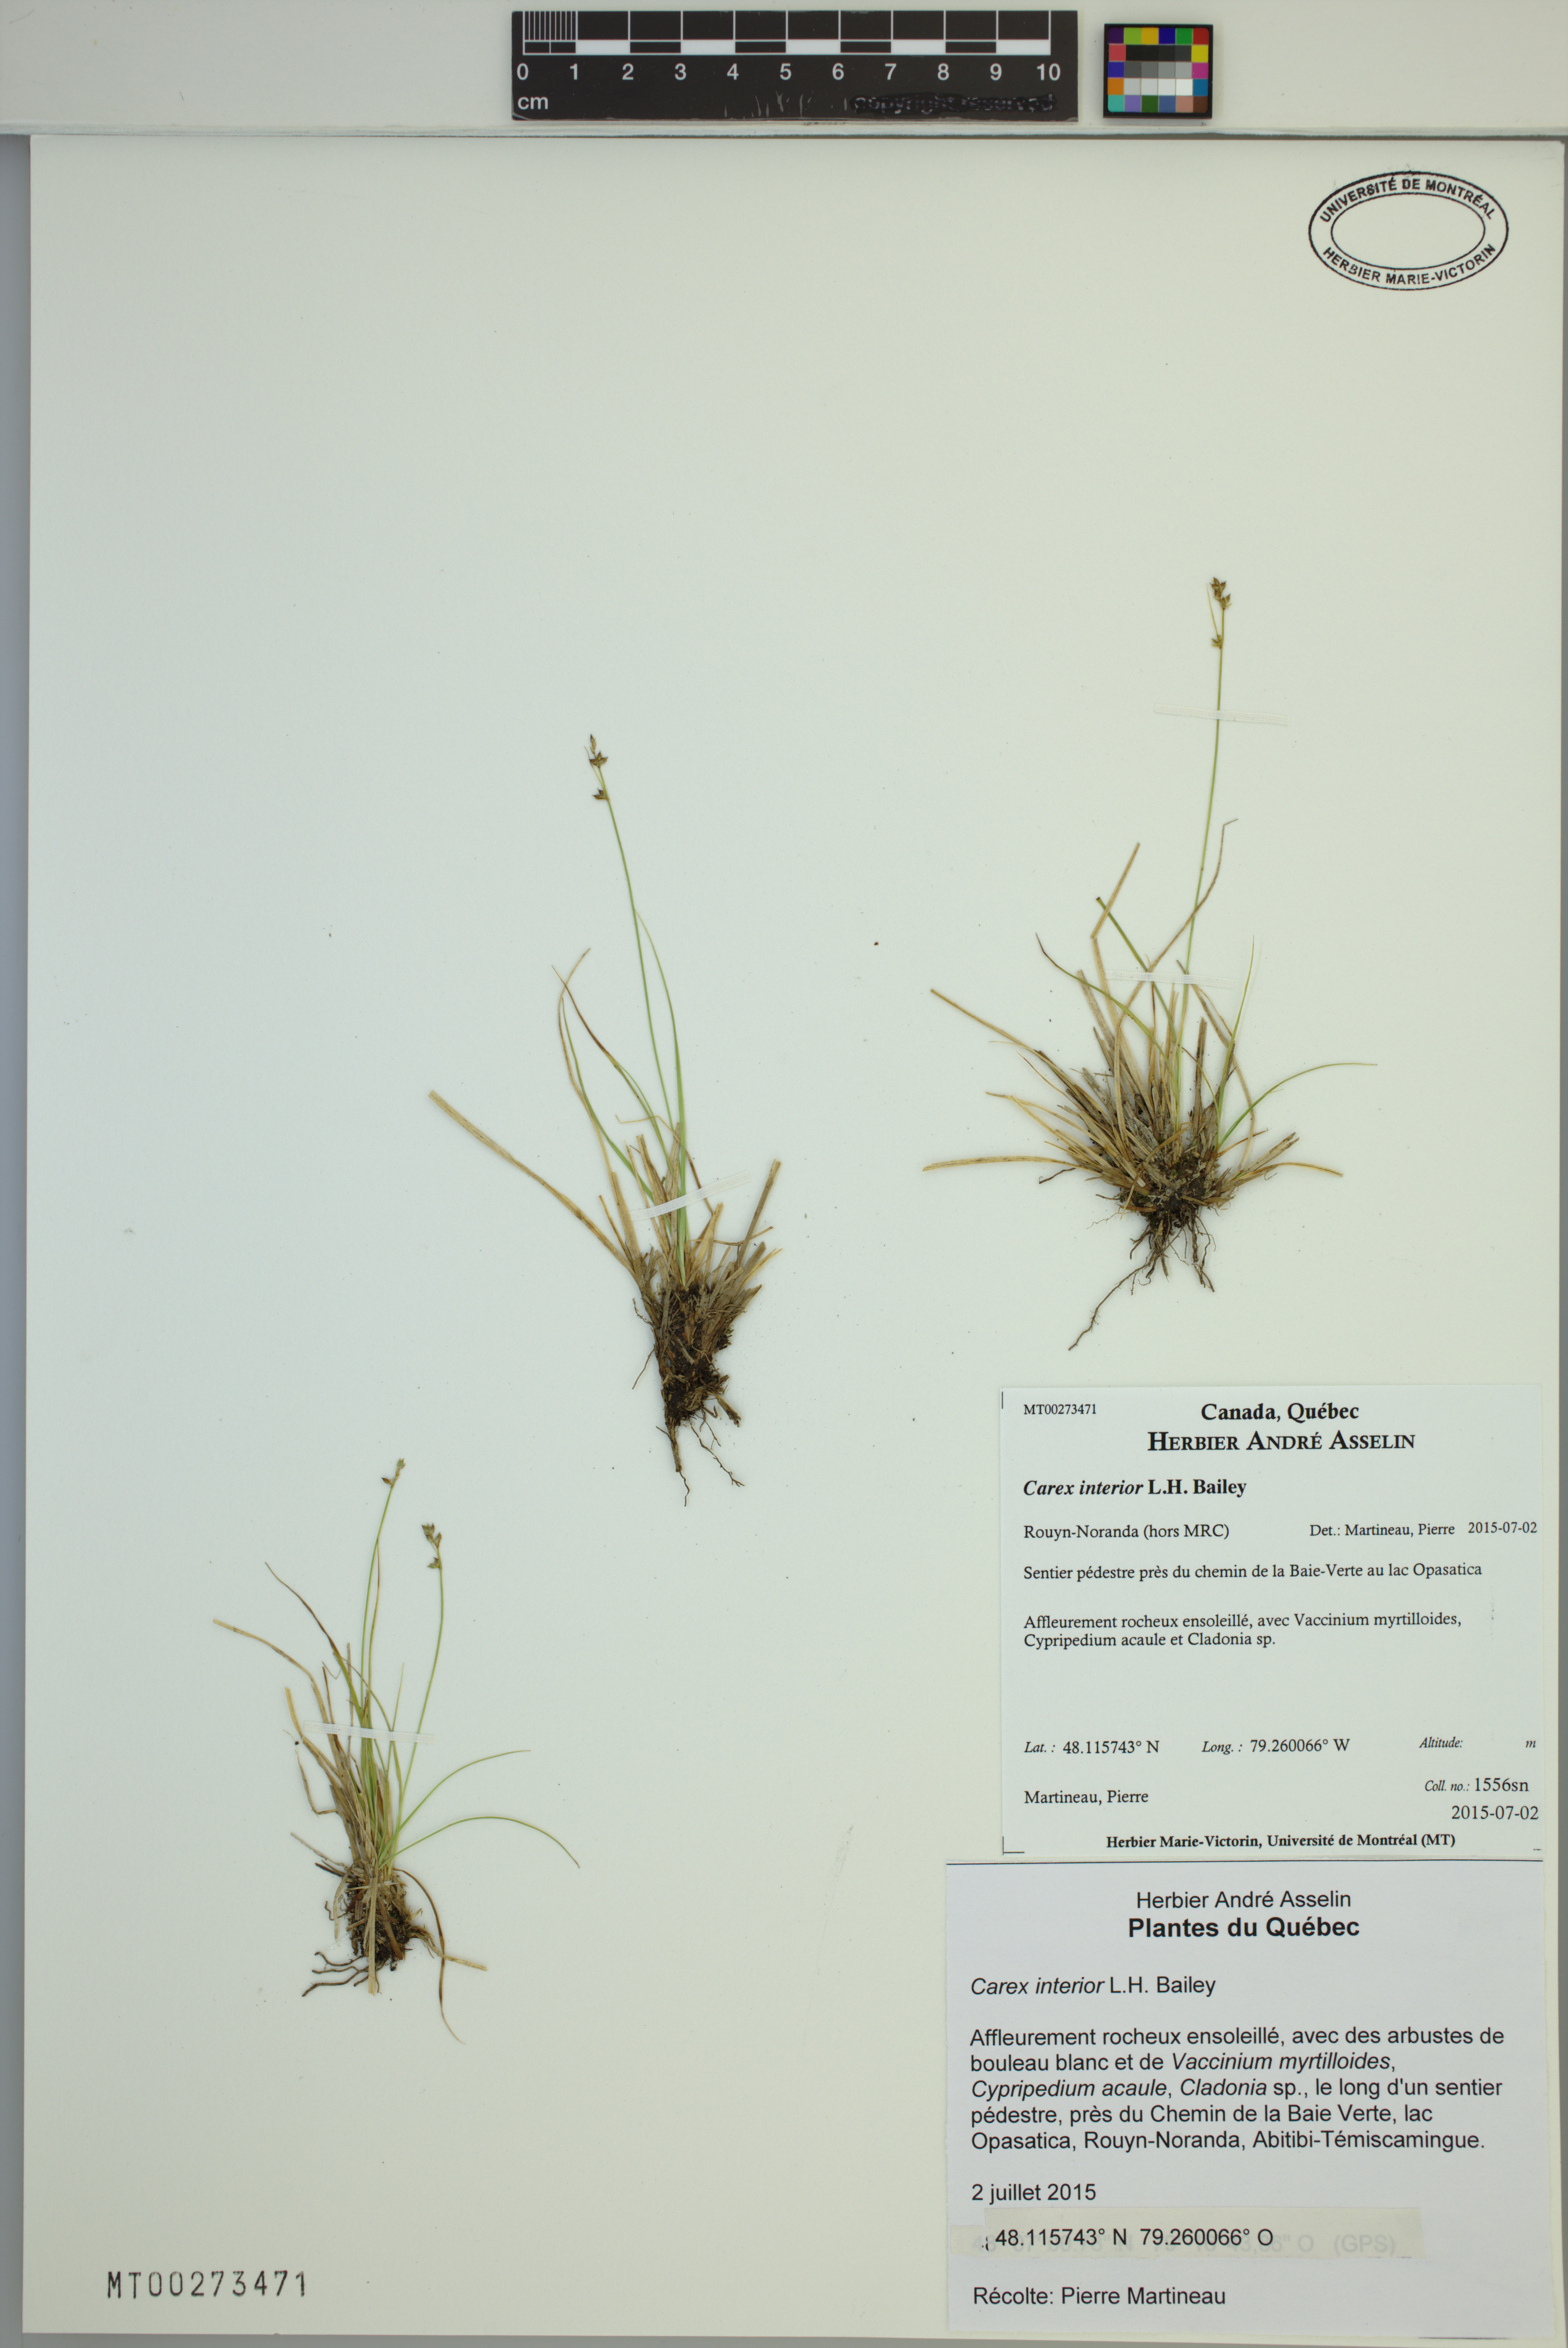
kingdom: Plantae
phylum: Tracheophyta
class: Liliopsida
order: Poales
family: Cyperaceae
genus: Carex
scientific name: Carex interior
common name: Inland sedge
